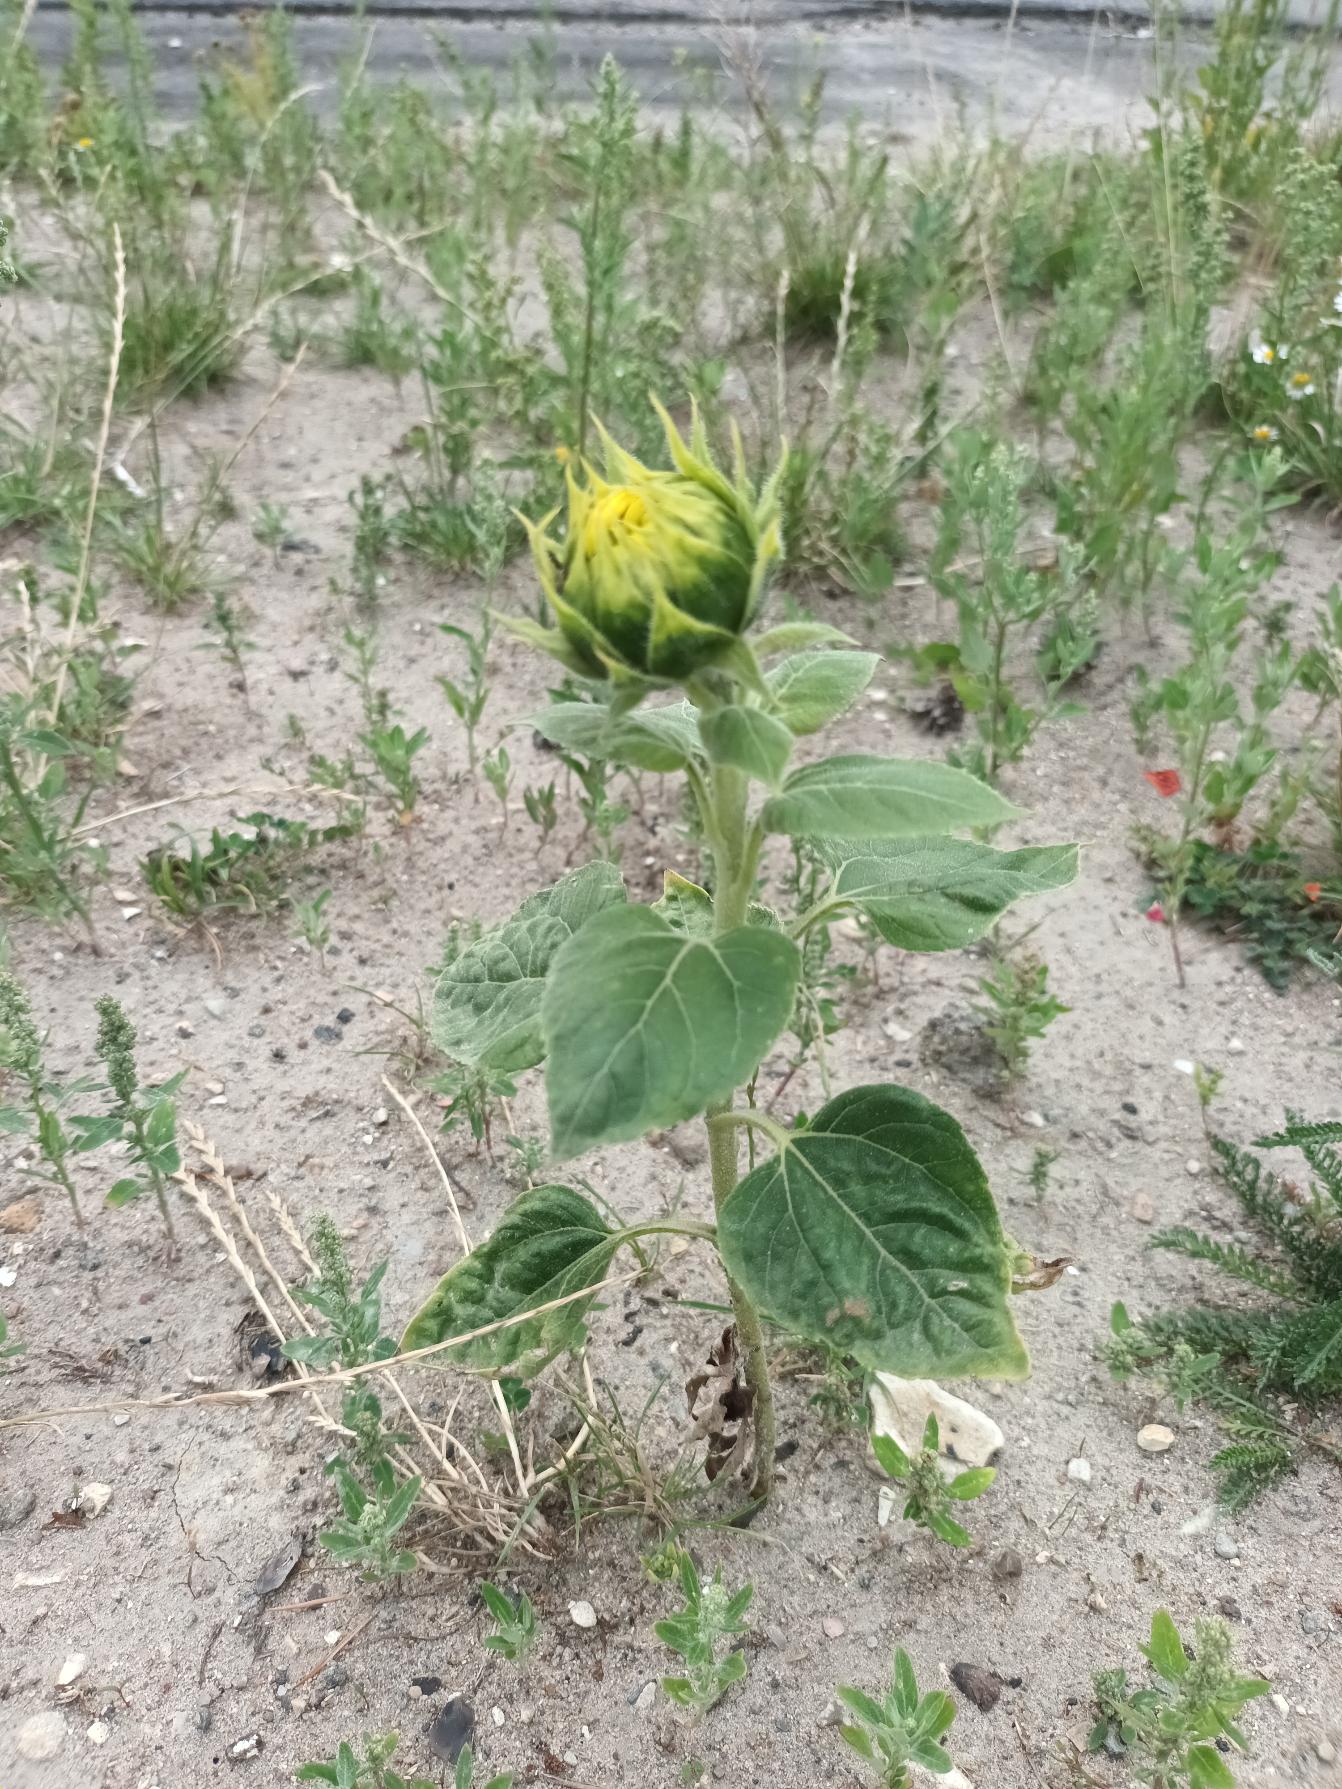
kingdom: Plantae
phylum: Tracheophyta
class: Magnoliopsida
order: Asterales
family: Asteraceae
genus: Helianthus
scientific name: Helianthus annuus
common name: Solsikke
